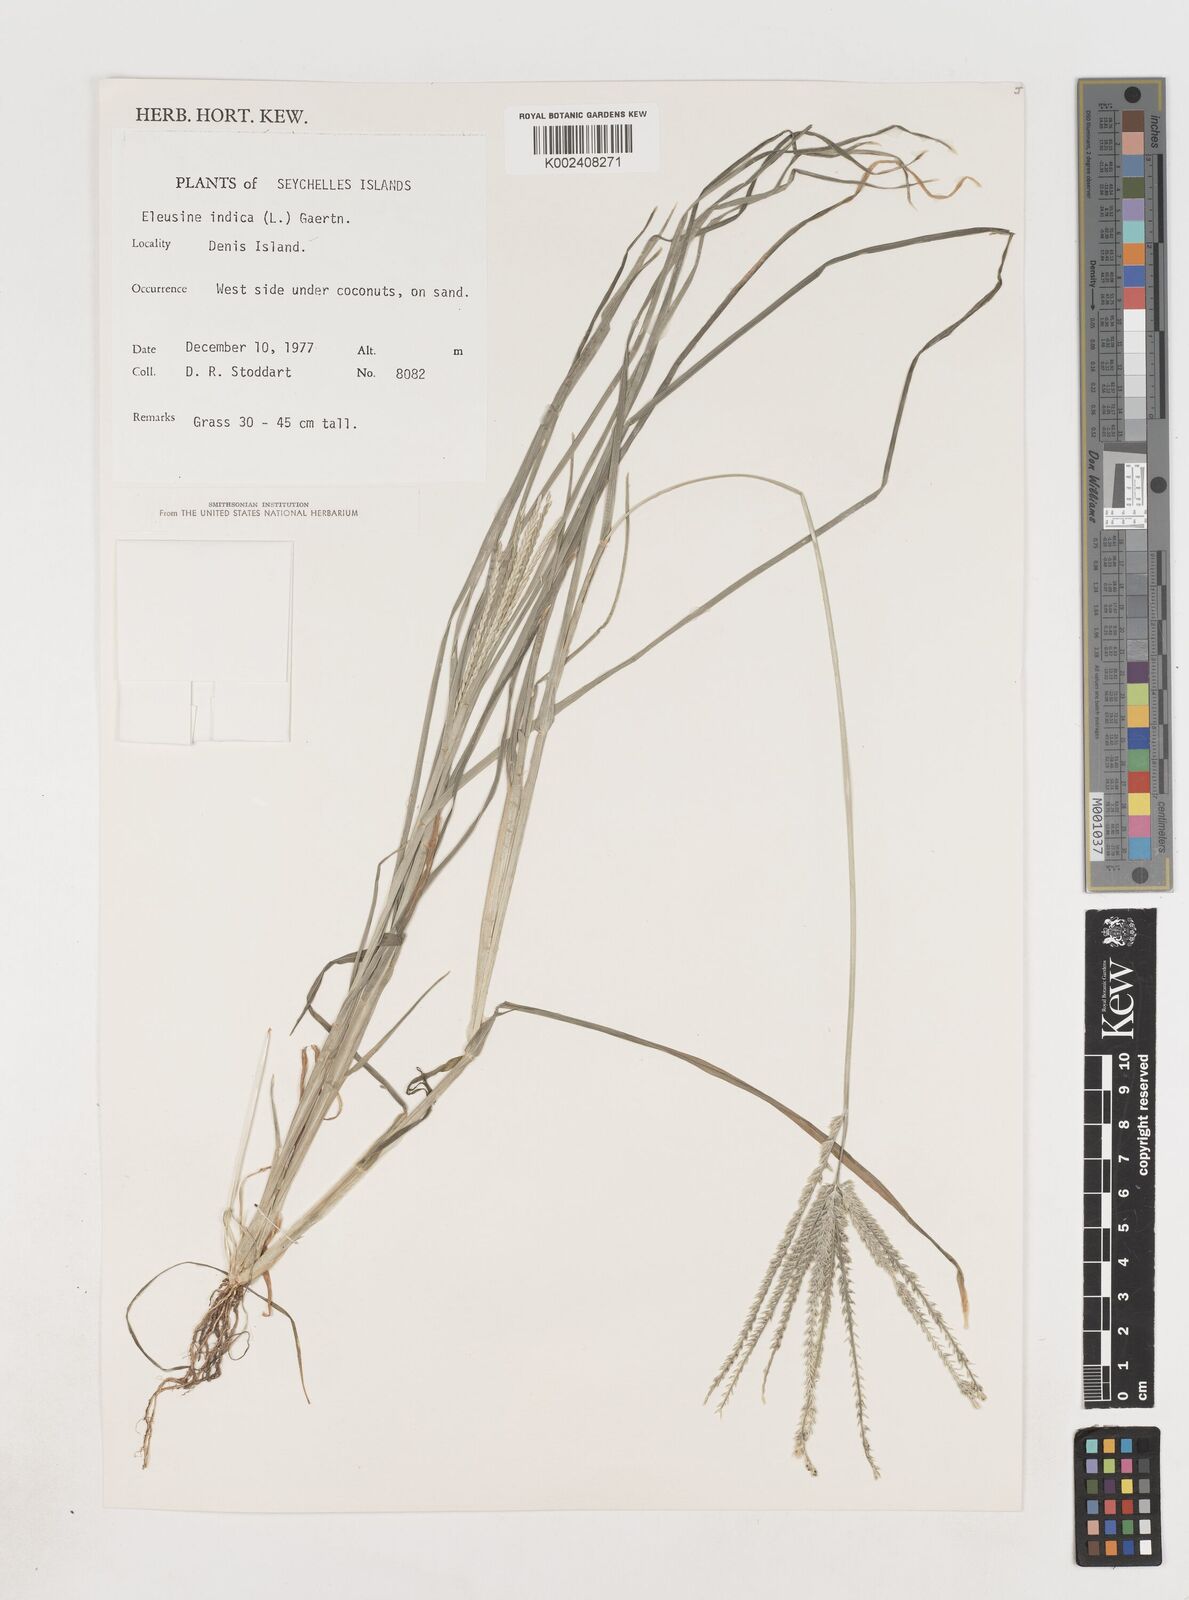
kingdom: Plantae
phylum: Tracheophyta
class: Liliopsida
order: Poales
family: Poaceae
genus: Eleusine
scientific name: Eleusine indica
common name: Yard-grass
